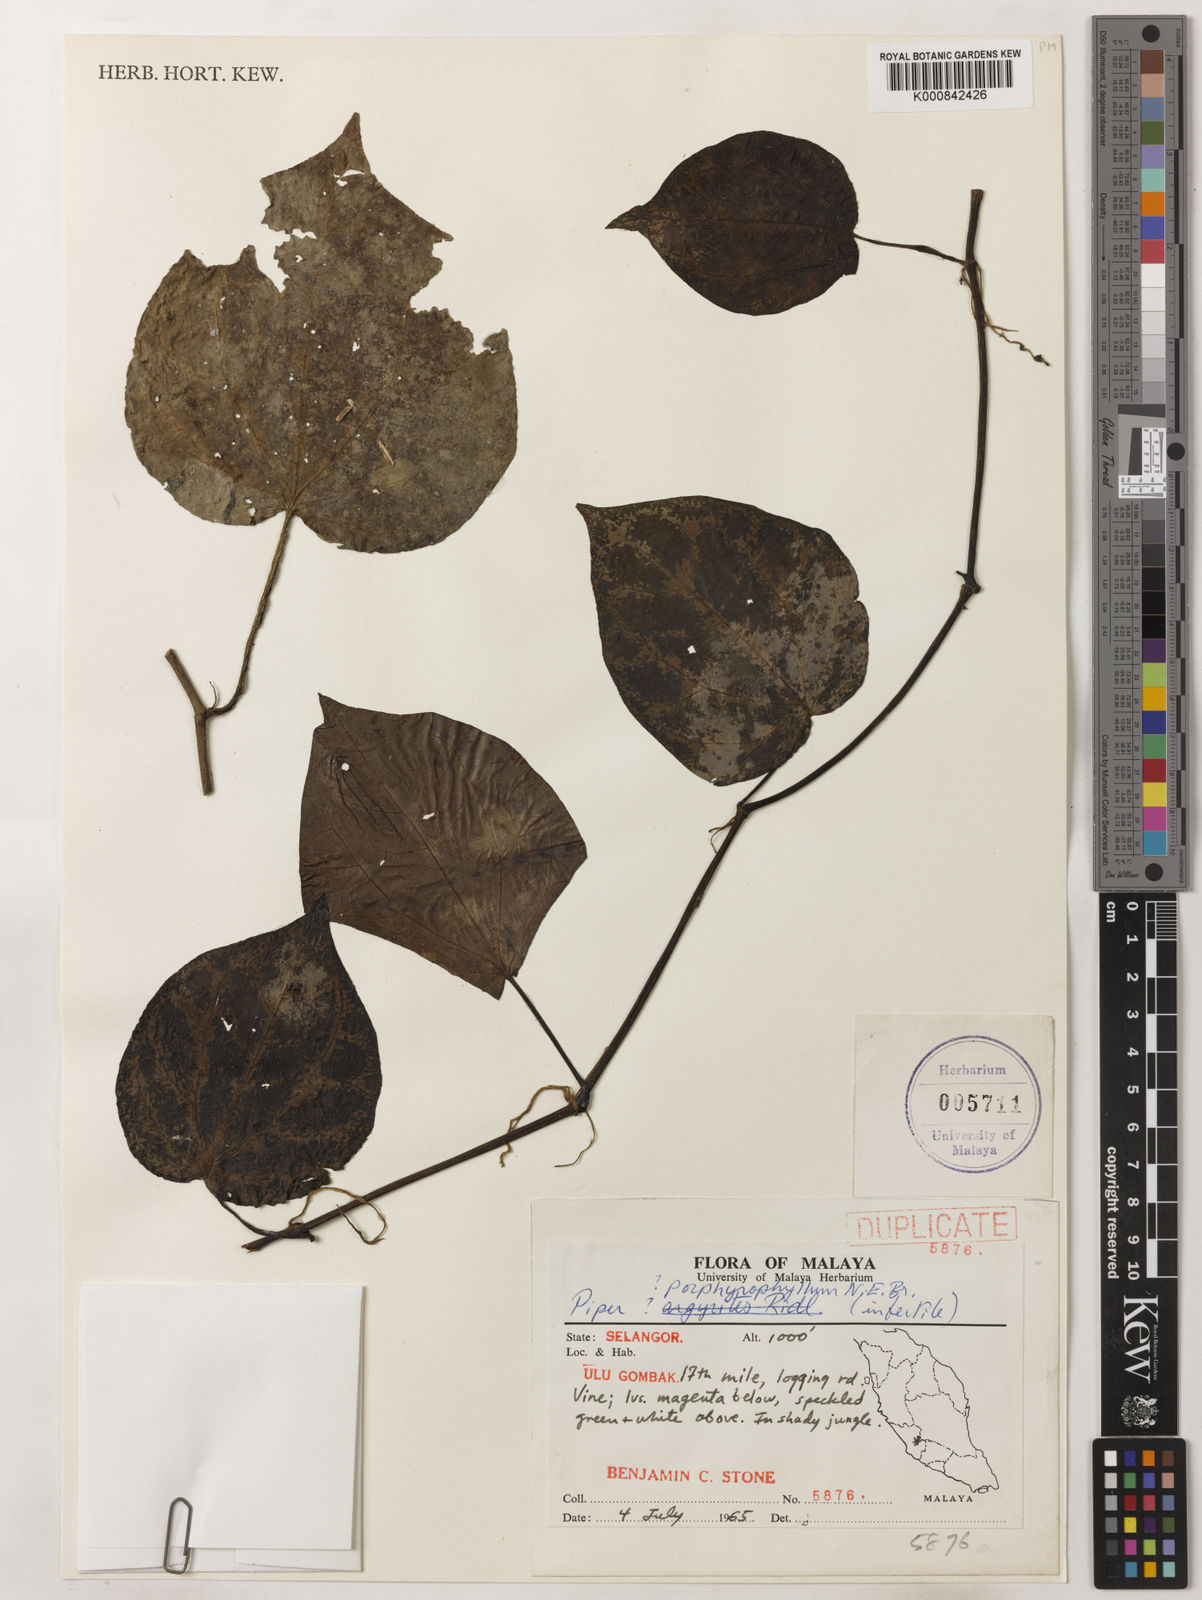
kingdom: Plantae
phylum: Tracheophyta
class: Magnoliopsida
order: Piperales
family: Piperaceae
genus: Piper
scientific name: Piper porphyrophyllum
